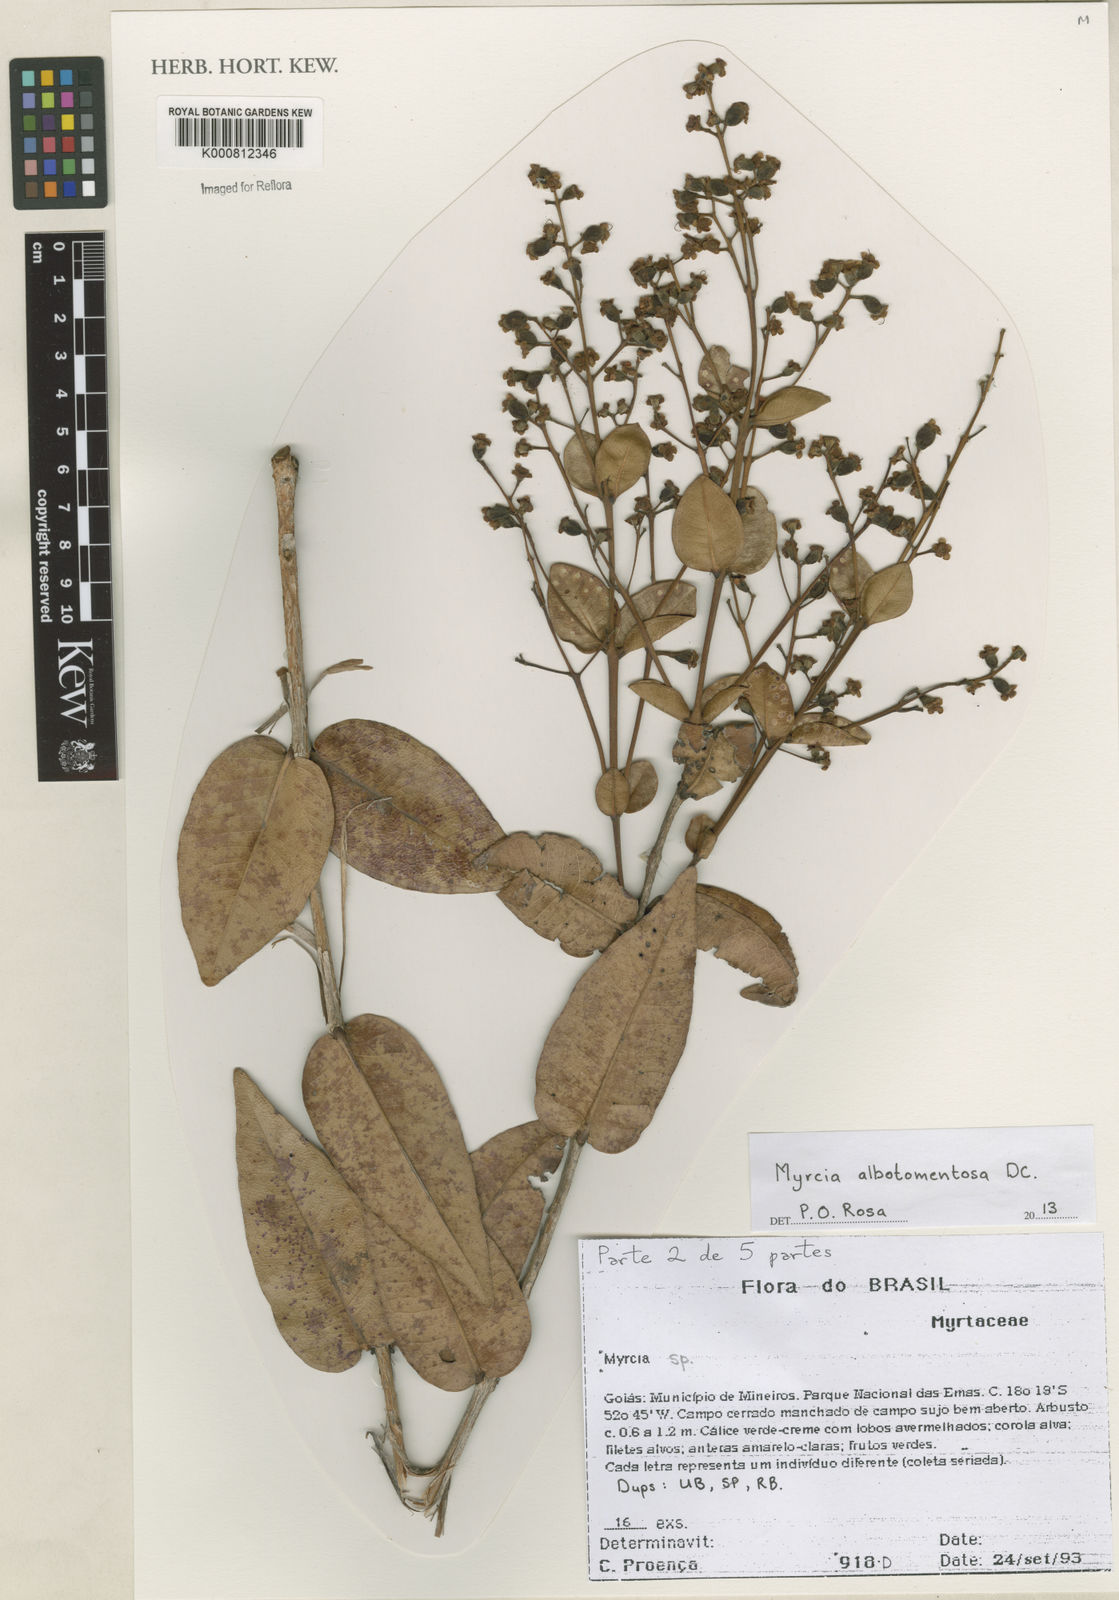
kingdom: Plantae
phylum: Tracheophyta
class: Magnoliopsida
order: Myrtales
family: Myrtaceae
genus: Myrcia
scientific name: Myrcia albotomentosa
